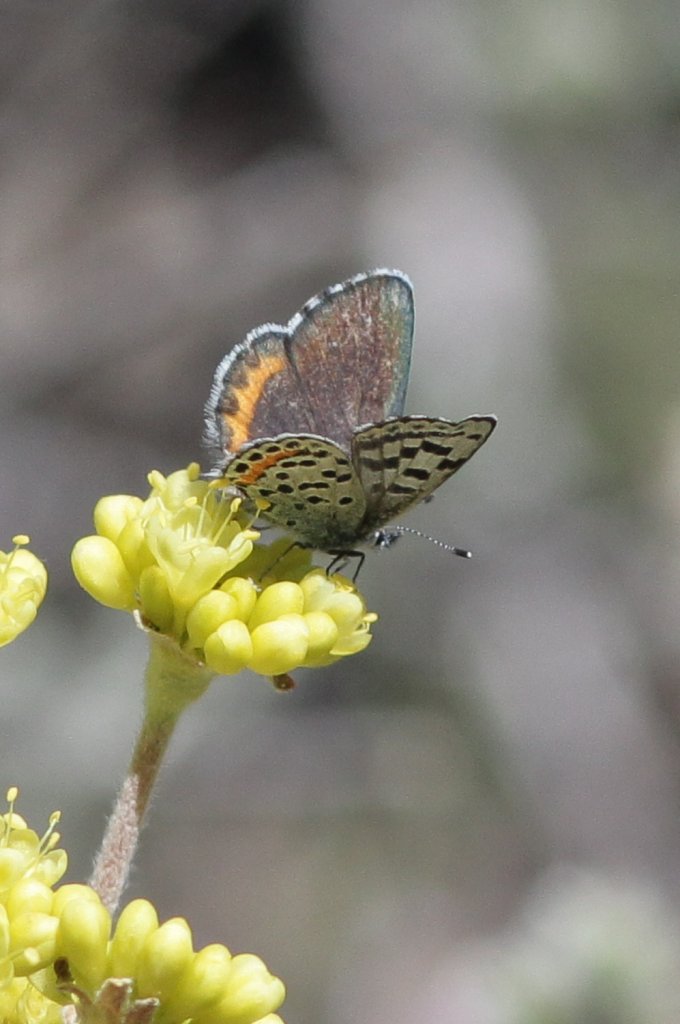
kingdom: Animalia
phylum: Arthropoda
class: Insecta
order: Lepidoptera
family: Lycaenidae
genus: Euphilotes
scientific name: Euphilotes
